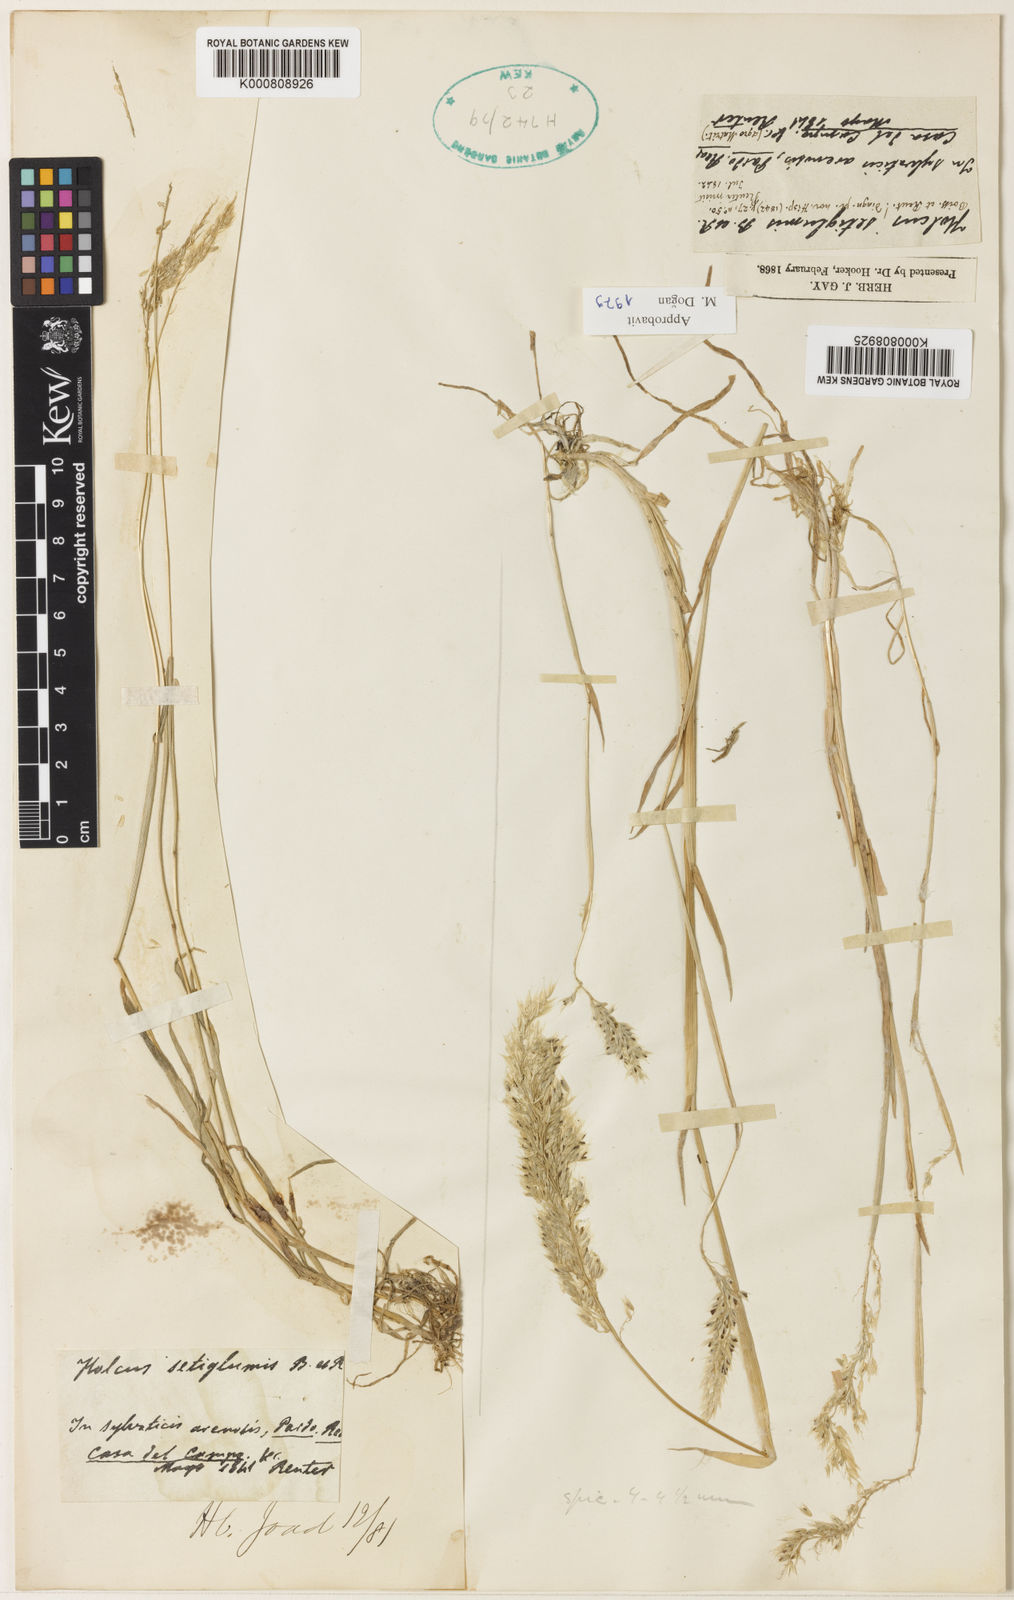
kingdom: Plantae
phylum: Tracheophyta
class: Liliopsida
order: Poales
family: Poaceae
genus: Holcus
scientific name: Holcus annuus
